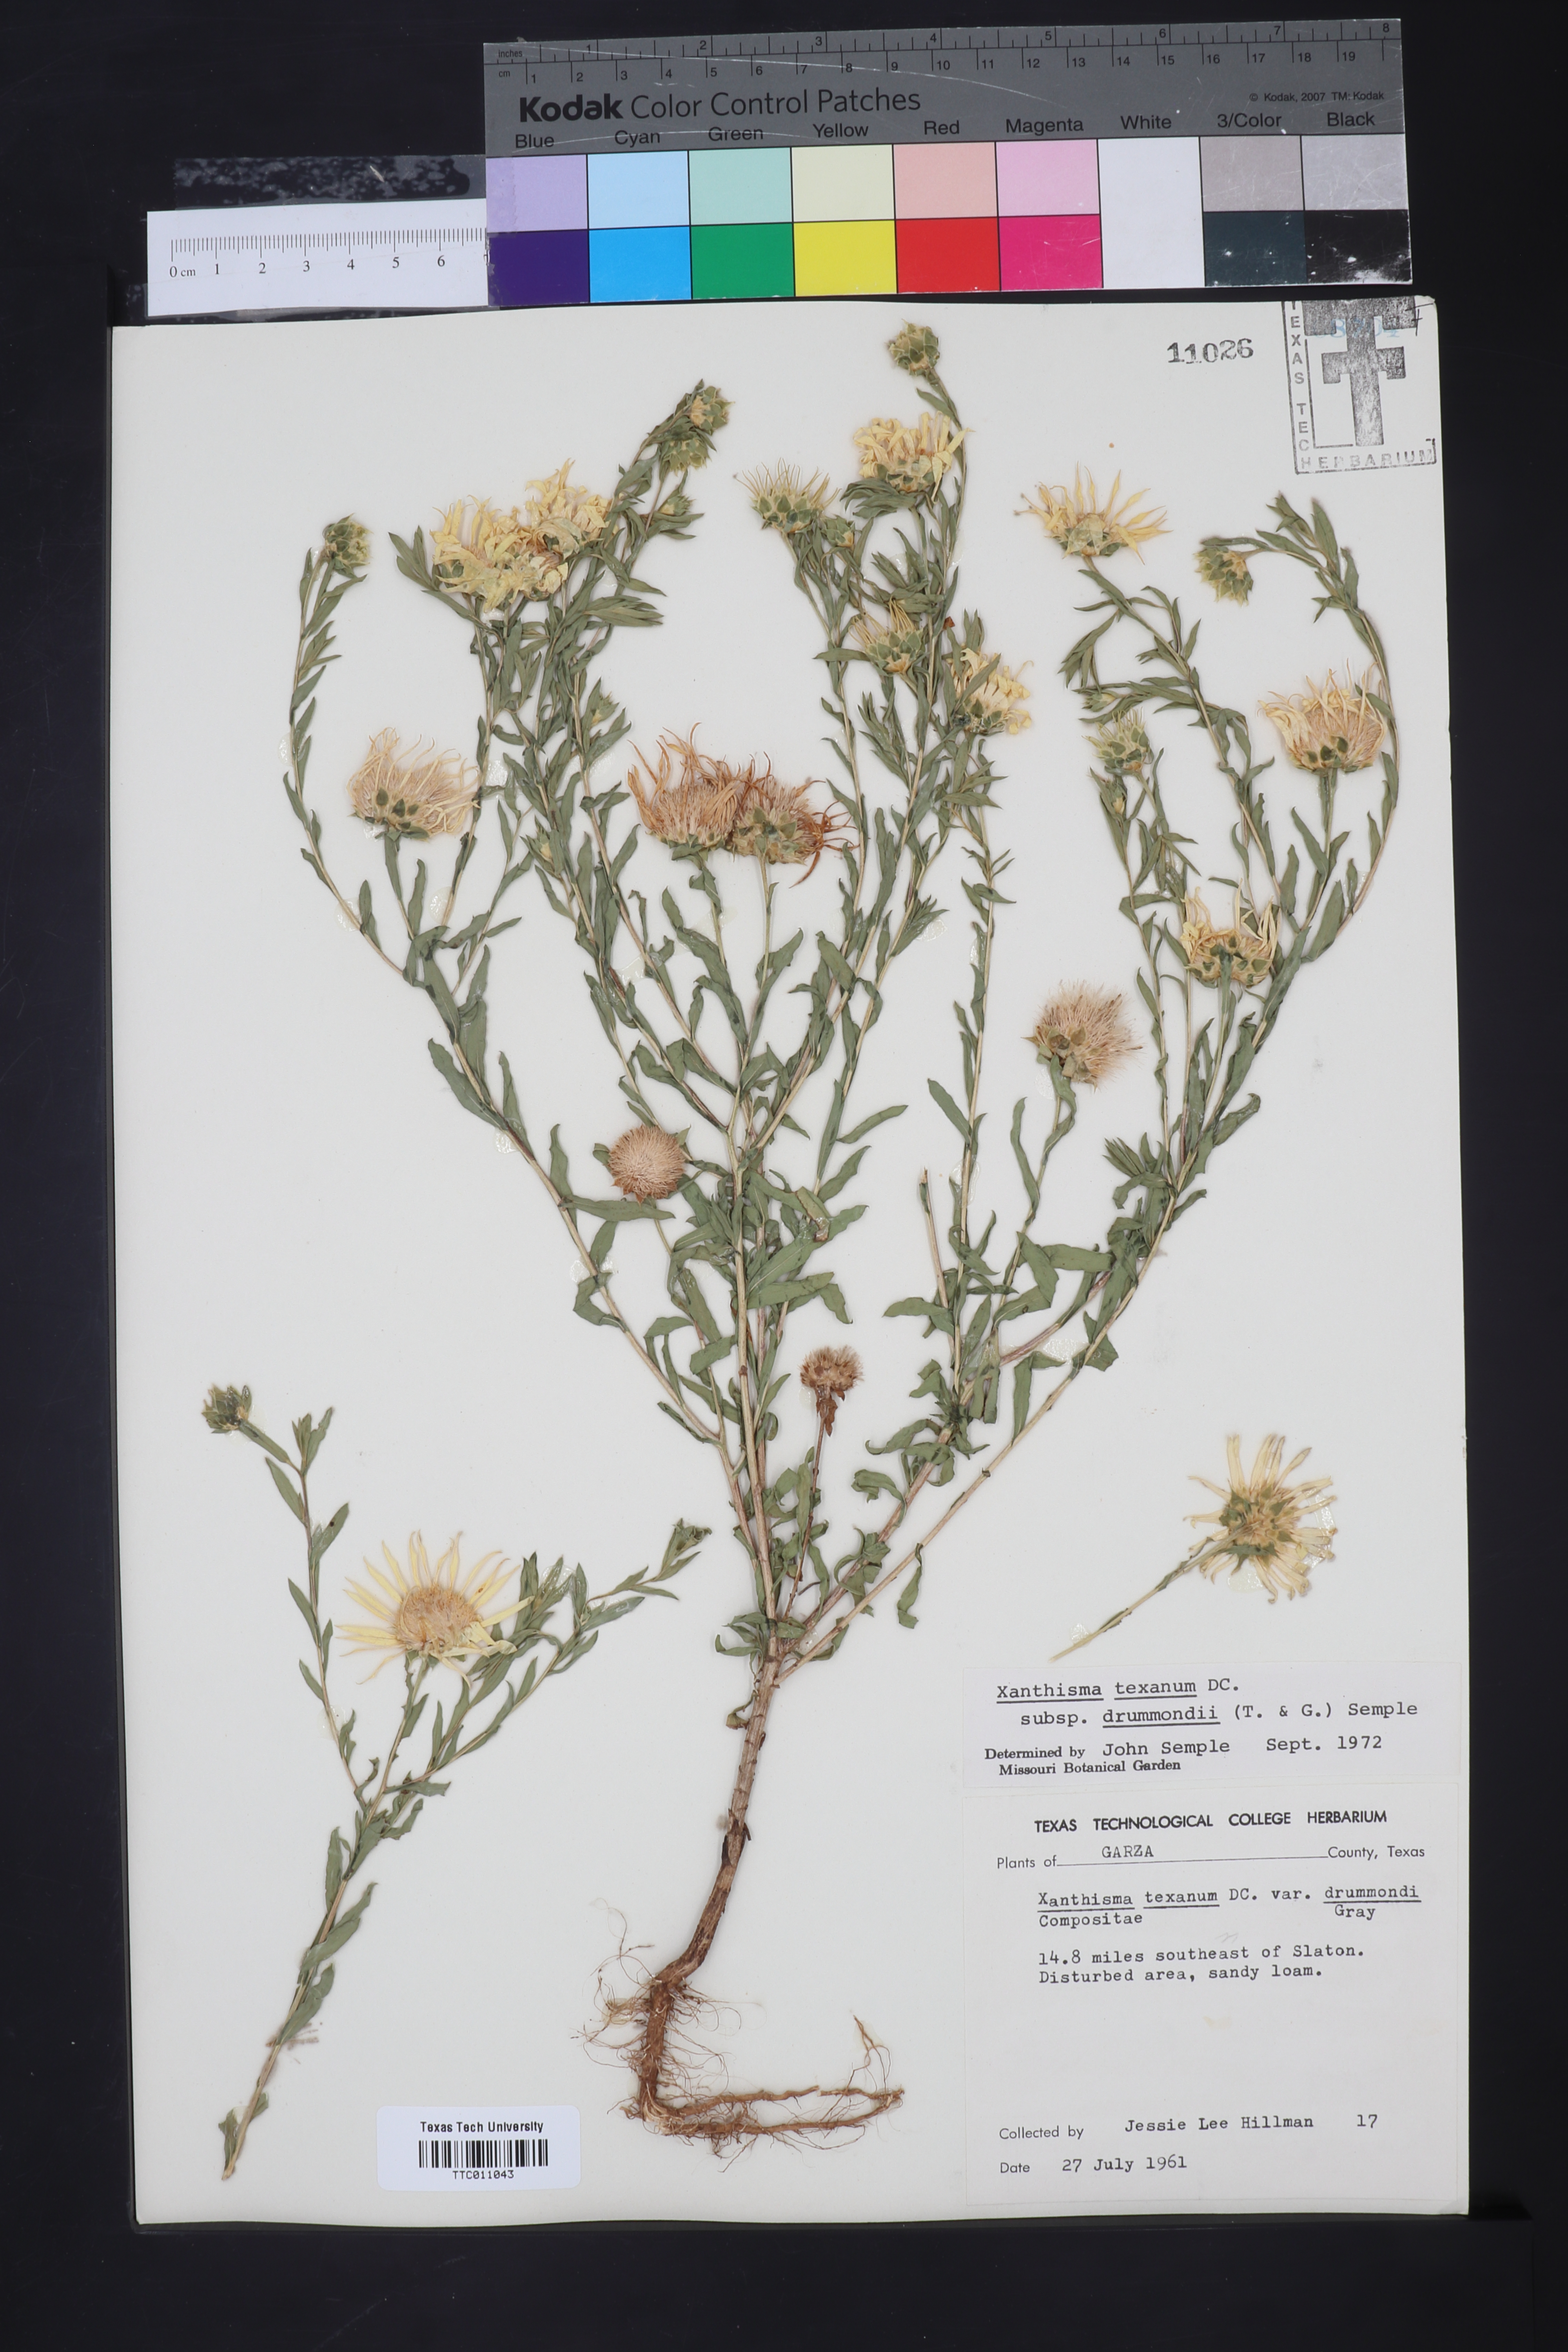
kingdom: Plantae
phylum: Tracheophyta
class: Magnoliopsida
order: Asterales
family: Asteraceae
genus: Xanthisma
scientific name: Xanthisma texanum
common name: Texas sleepy daisy
